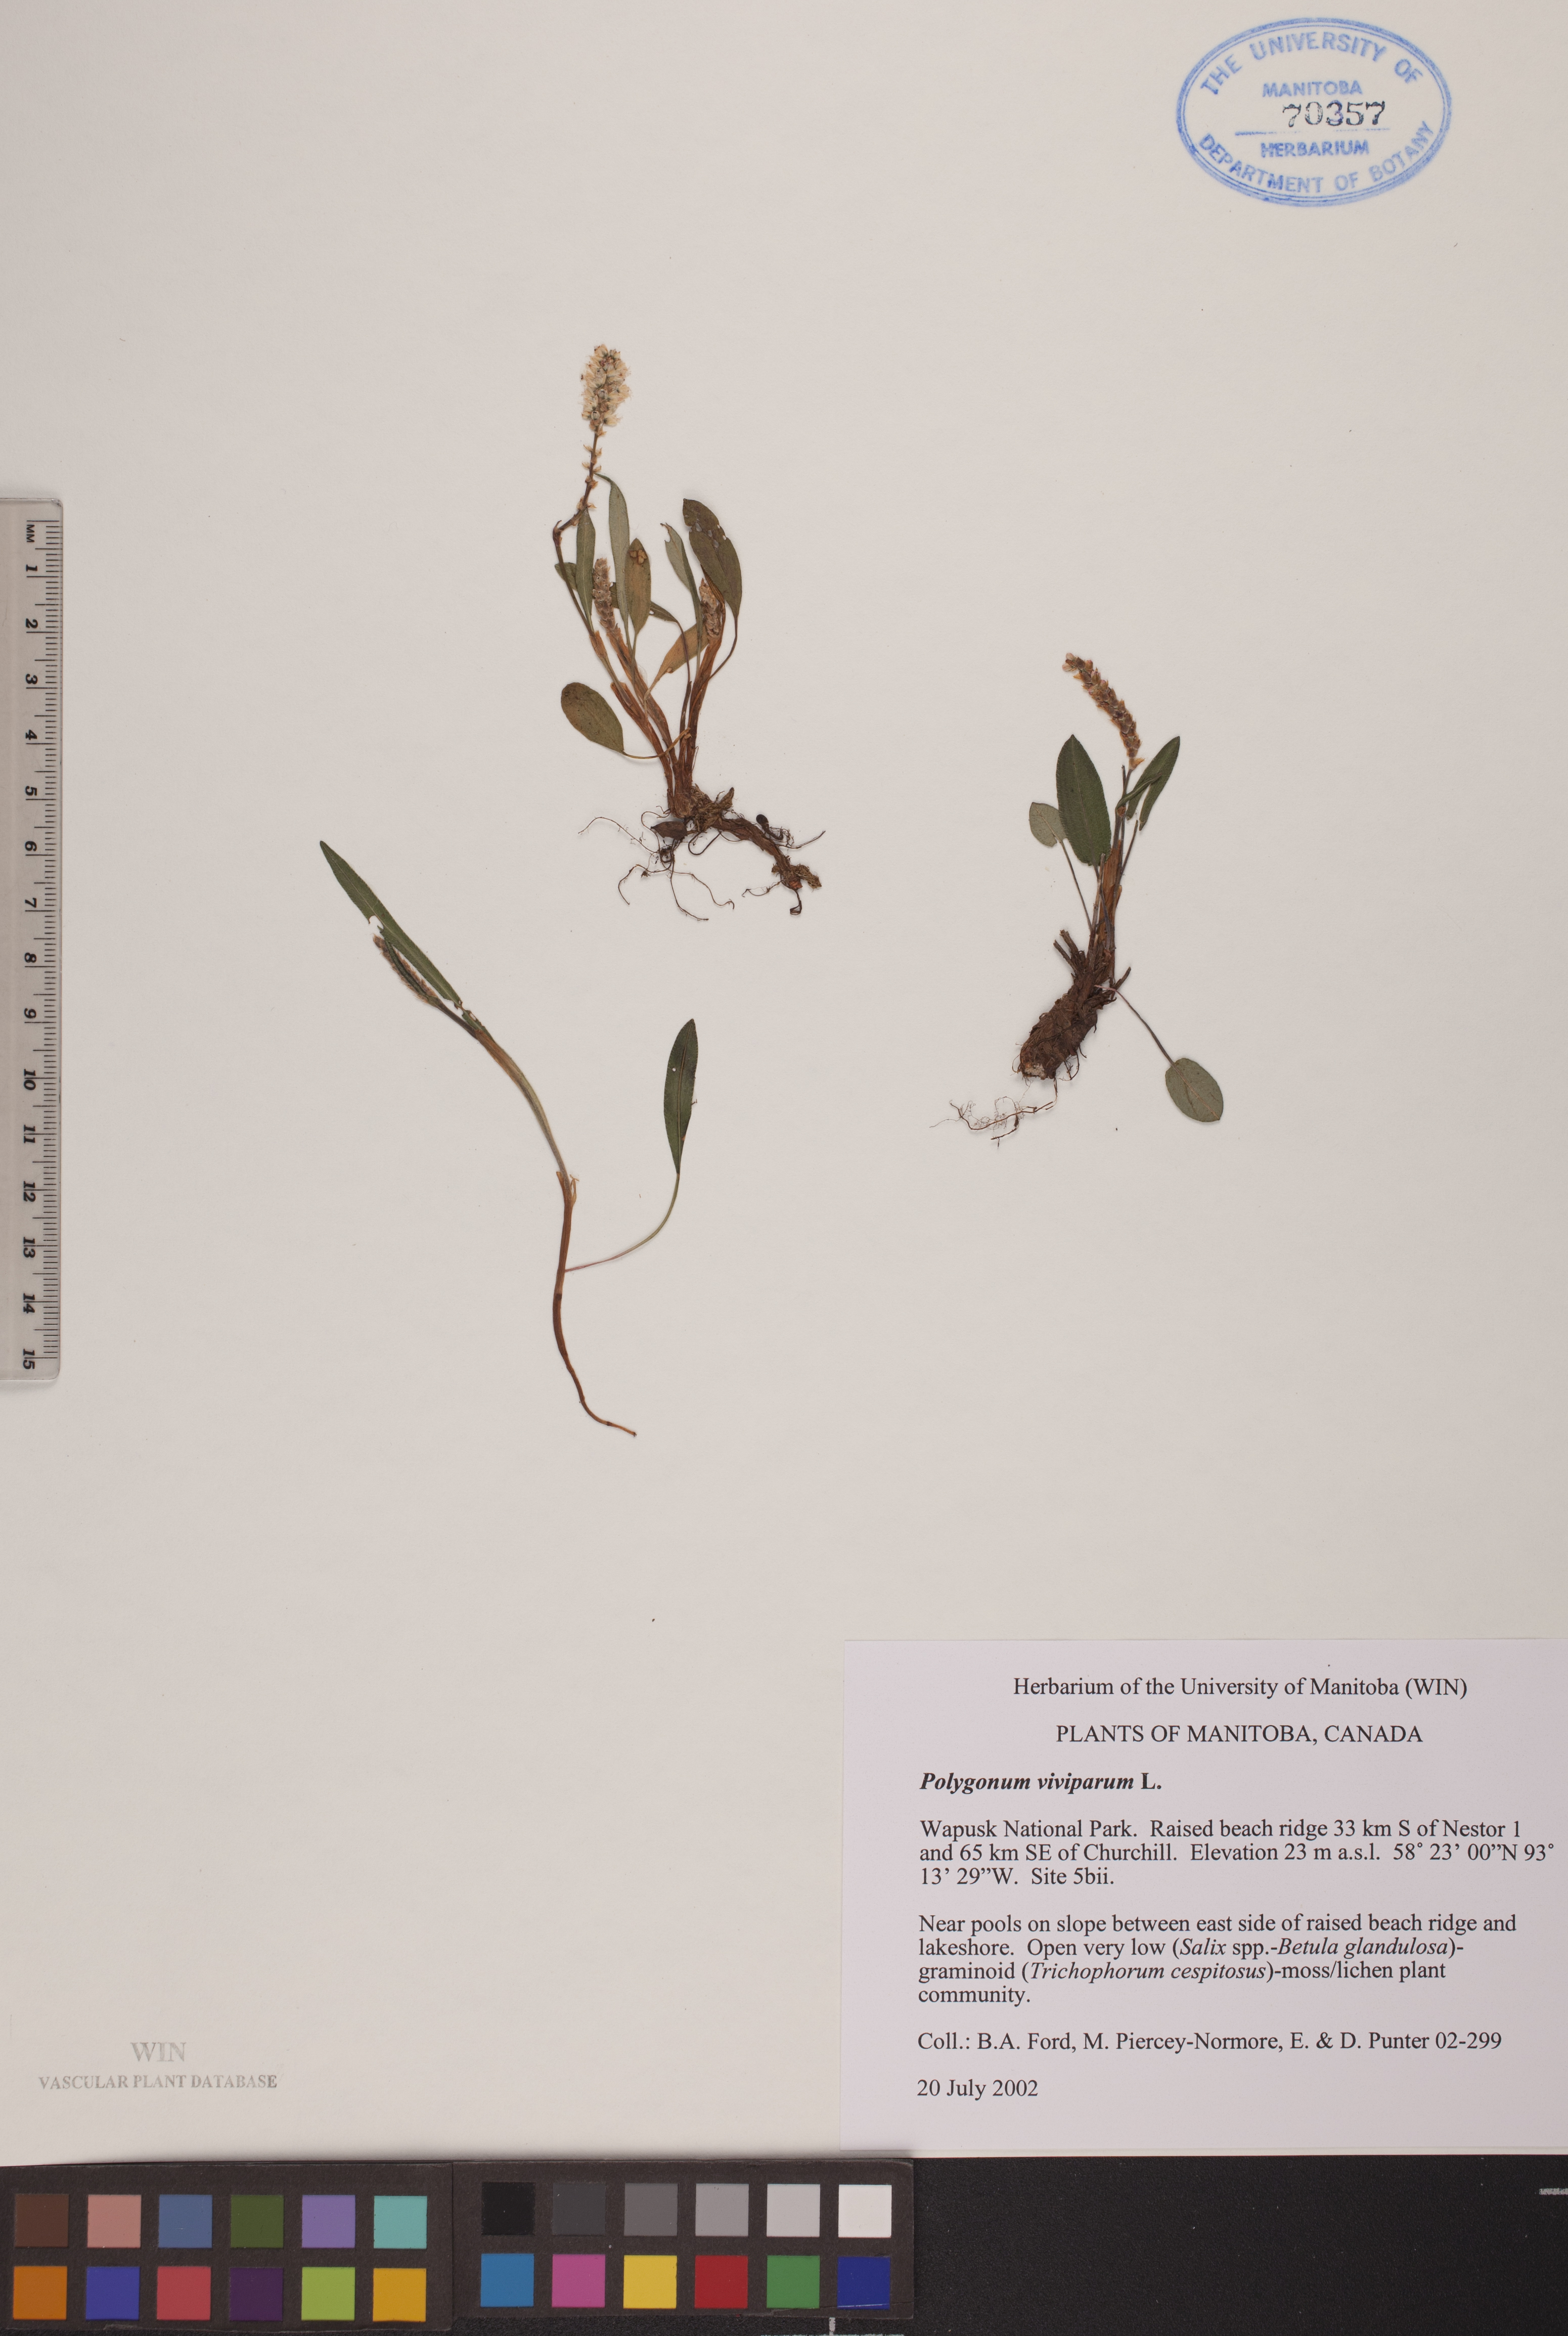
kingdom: Plantae
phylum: Tracheophyta
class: Magnoliopsida
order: Caryophyllales
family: Polygonaceae
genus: Bistorta
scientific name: Bistorta vivipara
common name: Alpine bistort
